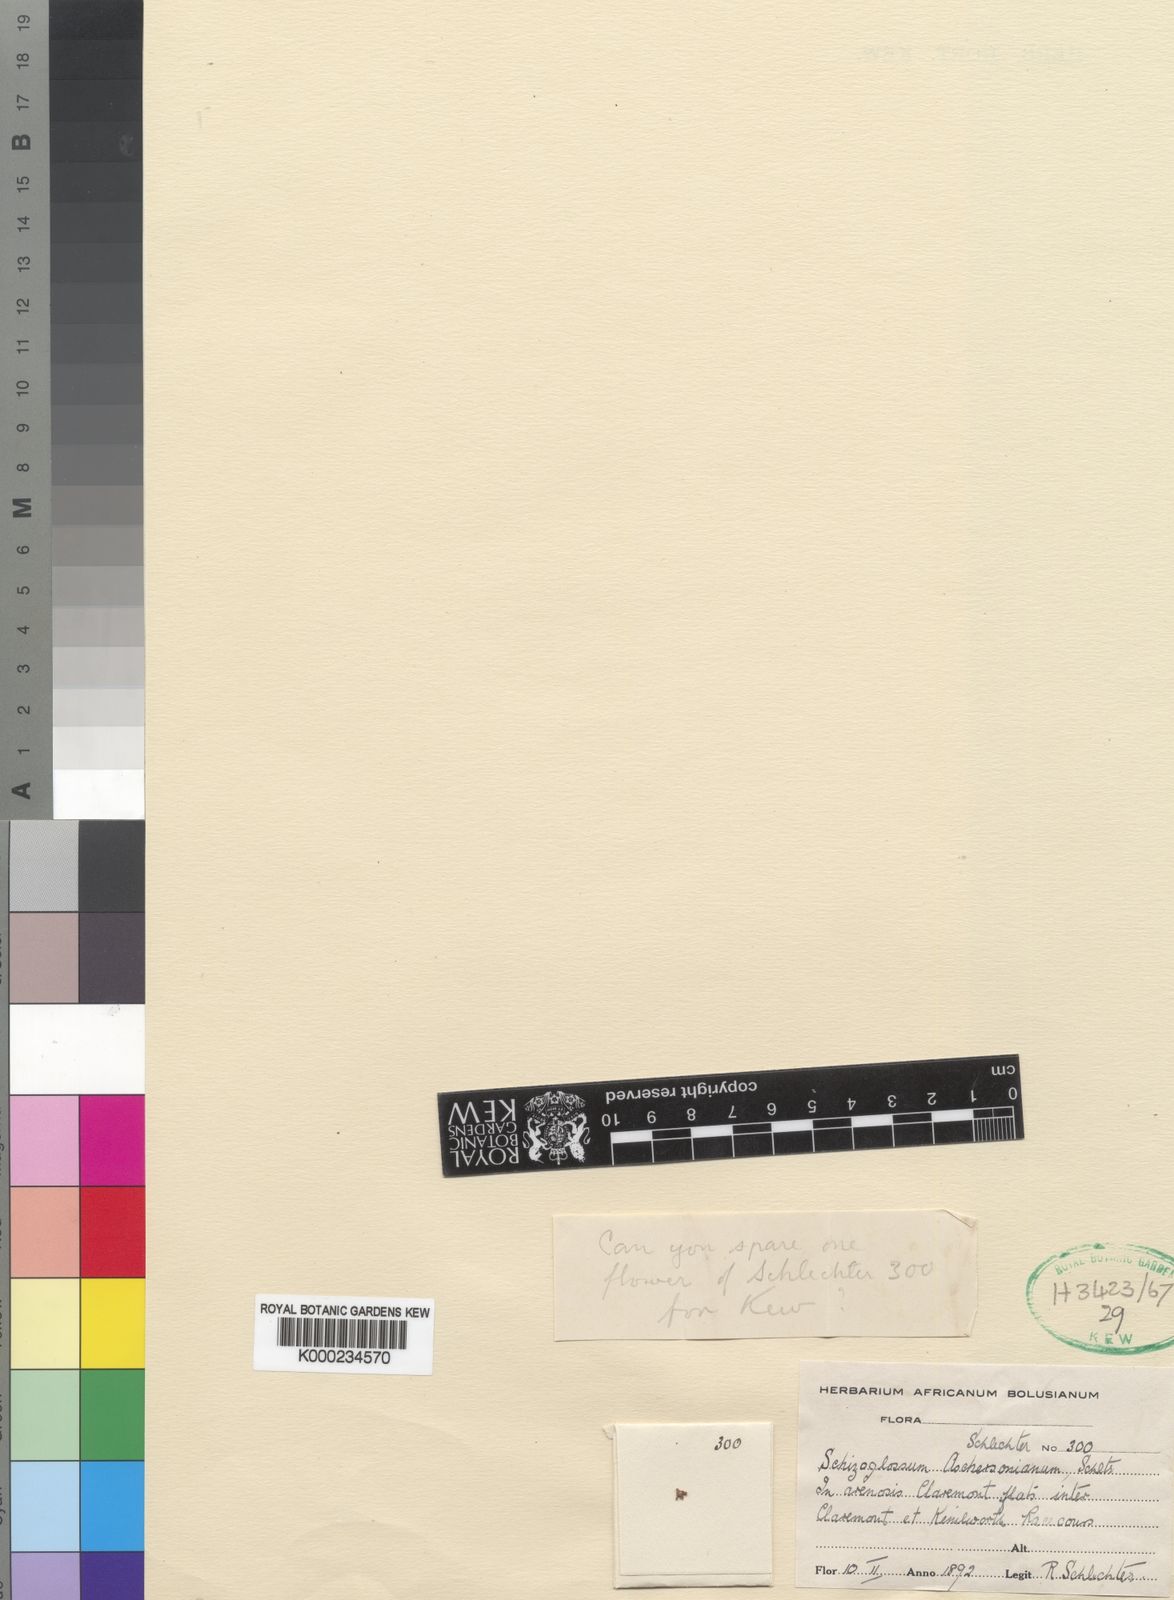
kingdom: Plantae
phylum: Tracheophyta
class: Magnoliopsida
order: Gentianales
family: Apocynaceae
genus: Schizoglossum
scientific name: Schizoglossum aschersonianum
